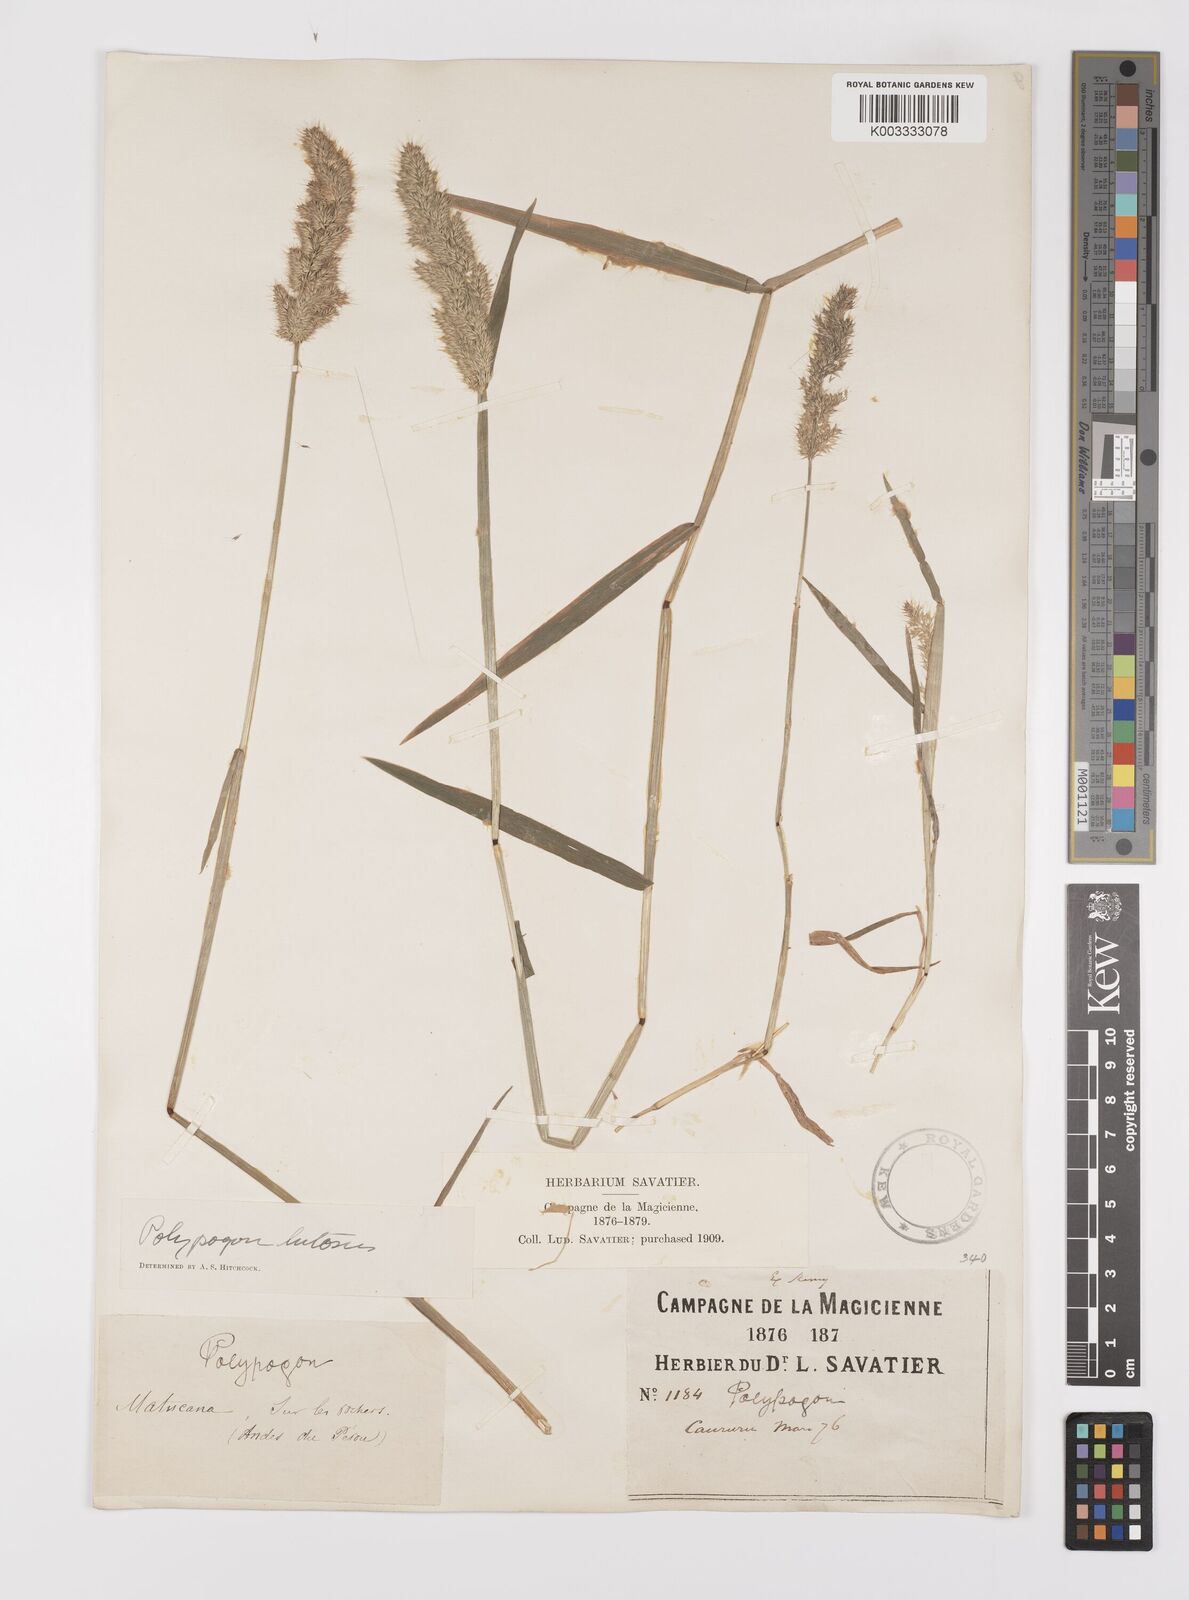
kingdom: Plantae
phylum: Tracheophyta
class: Liliopsida
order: Poales
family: Poaceae
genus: Polypogon
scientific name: Polypogon interruptus
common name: Ditch polypogon
